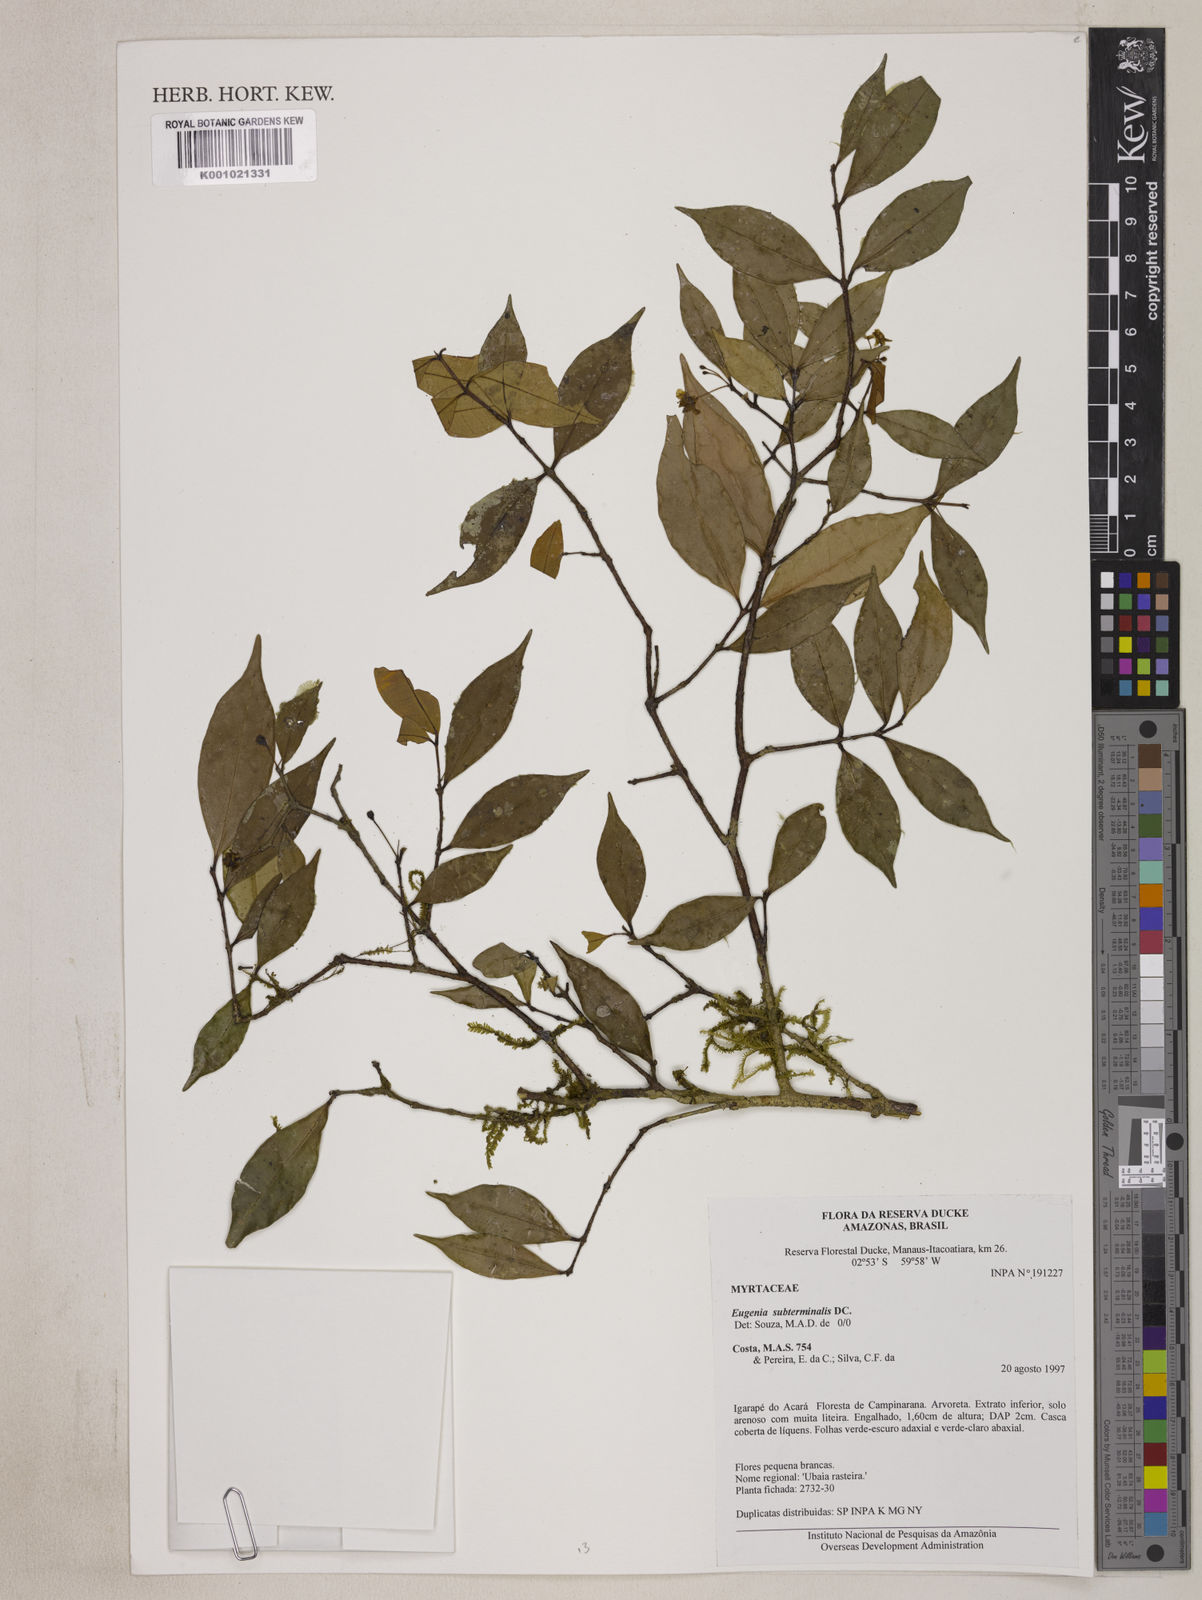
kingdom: Plantae
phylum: Tracheophyta
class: Magnoliopsida
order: Myrtales
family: Myrtaceae
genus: Eugenia
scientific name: Eugenia patrisii
